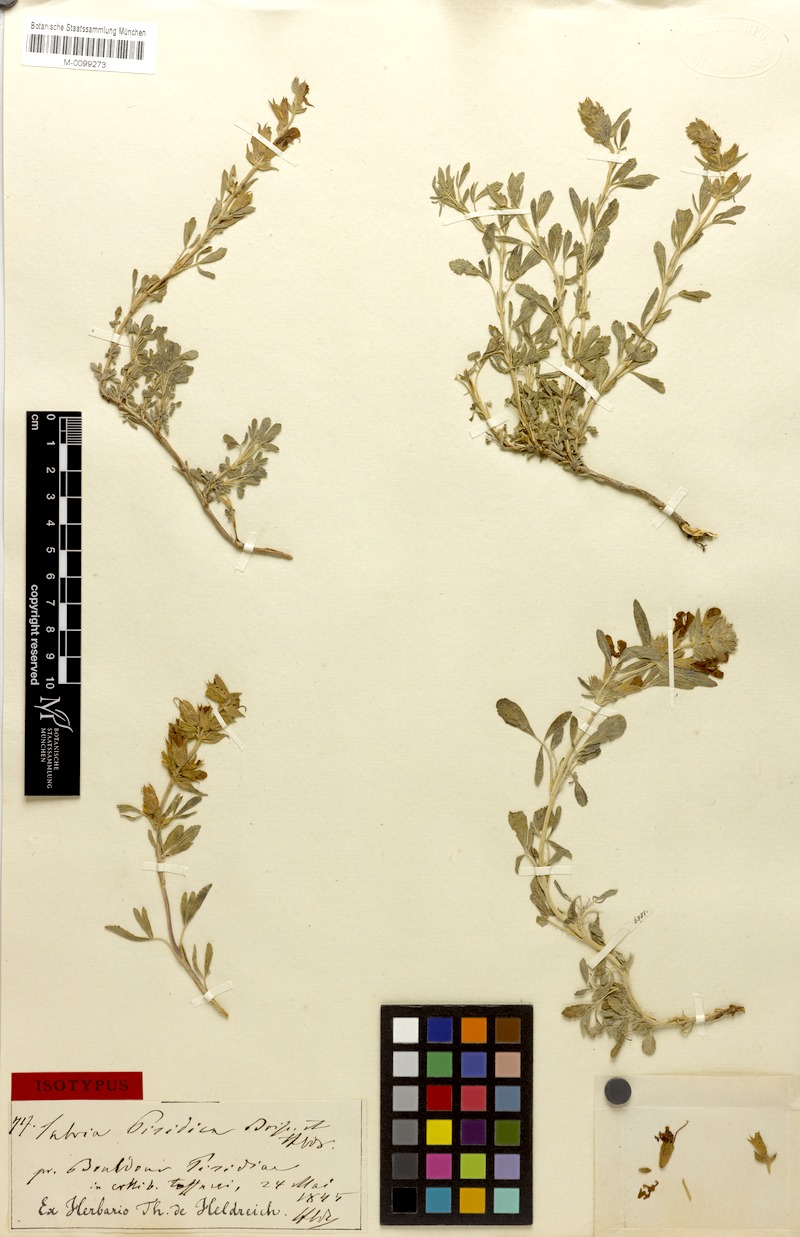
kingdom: Plantae
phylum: Tracheophyta
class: Magnoliopsida
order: Lamiales
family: Lamiaceae
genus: Salvia
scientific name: Salvia pisidica
